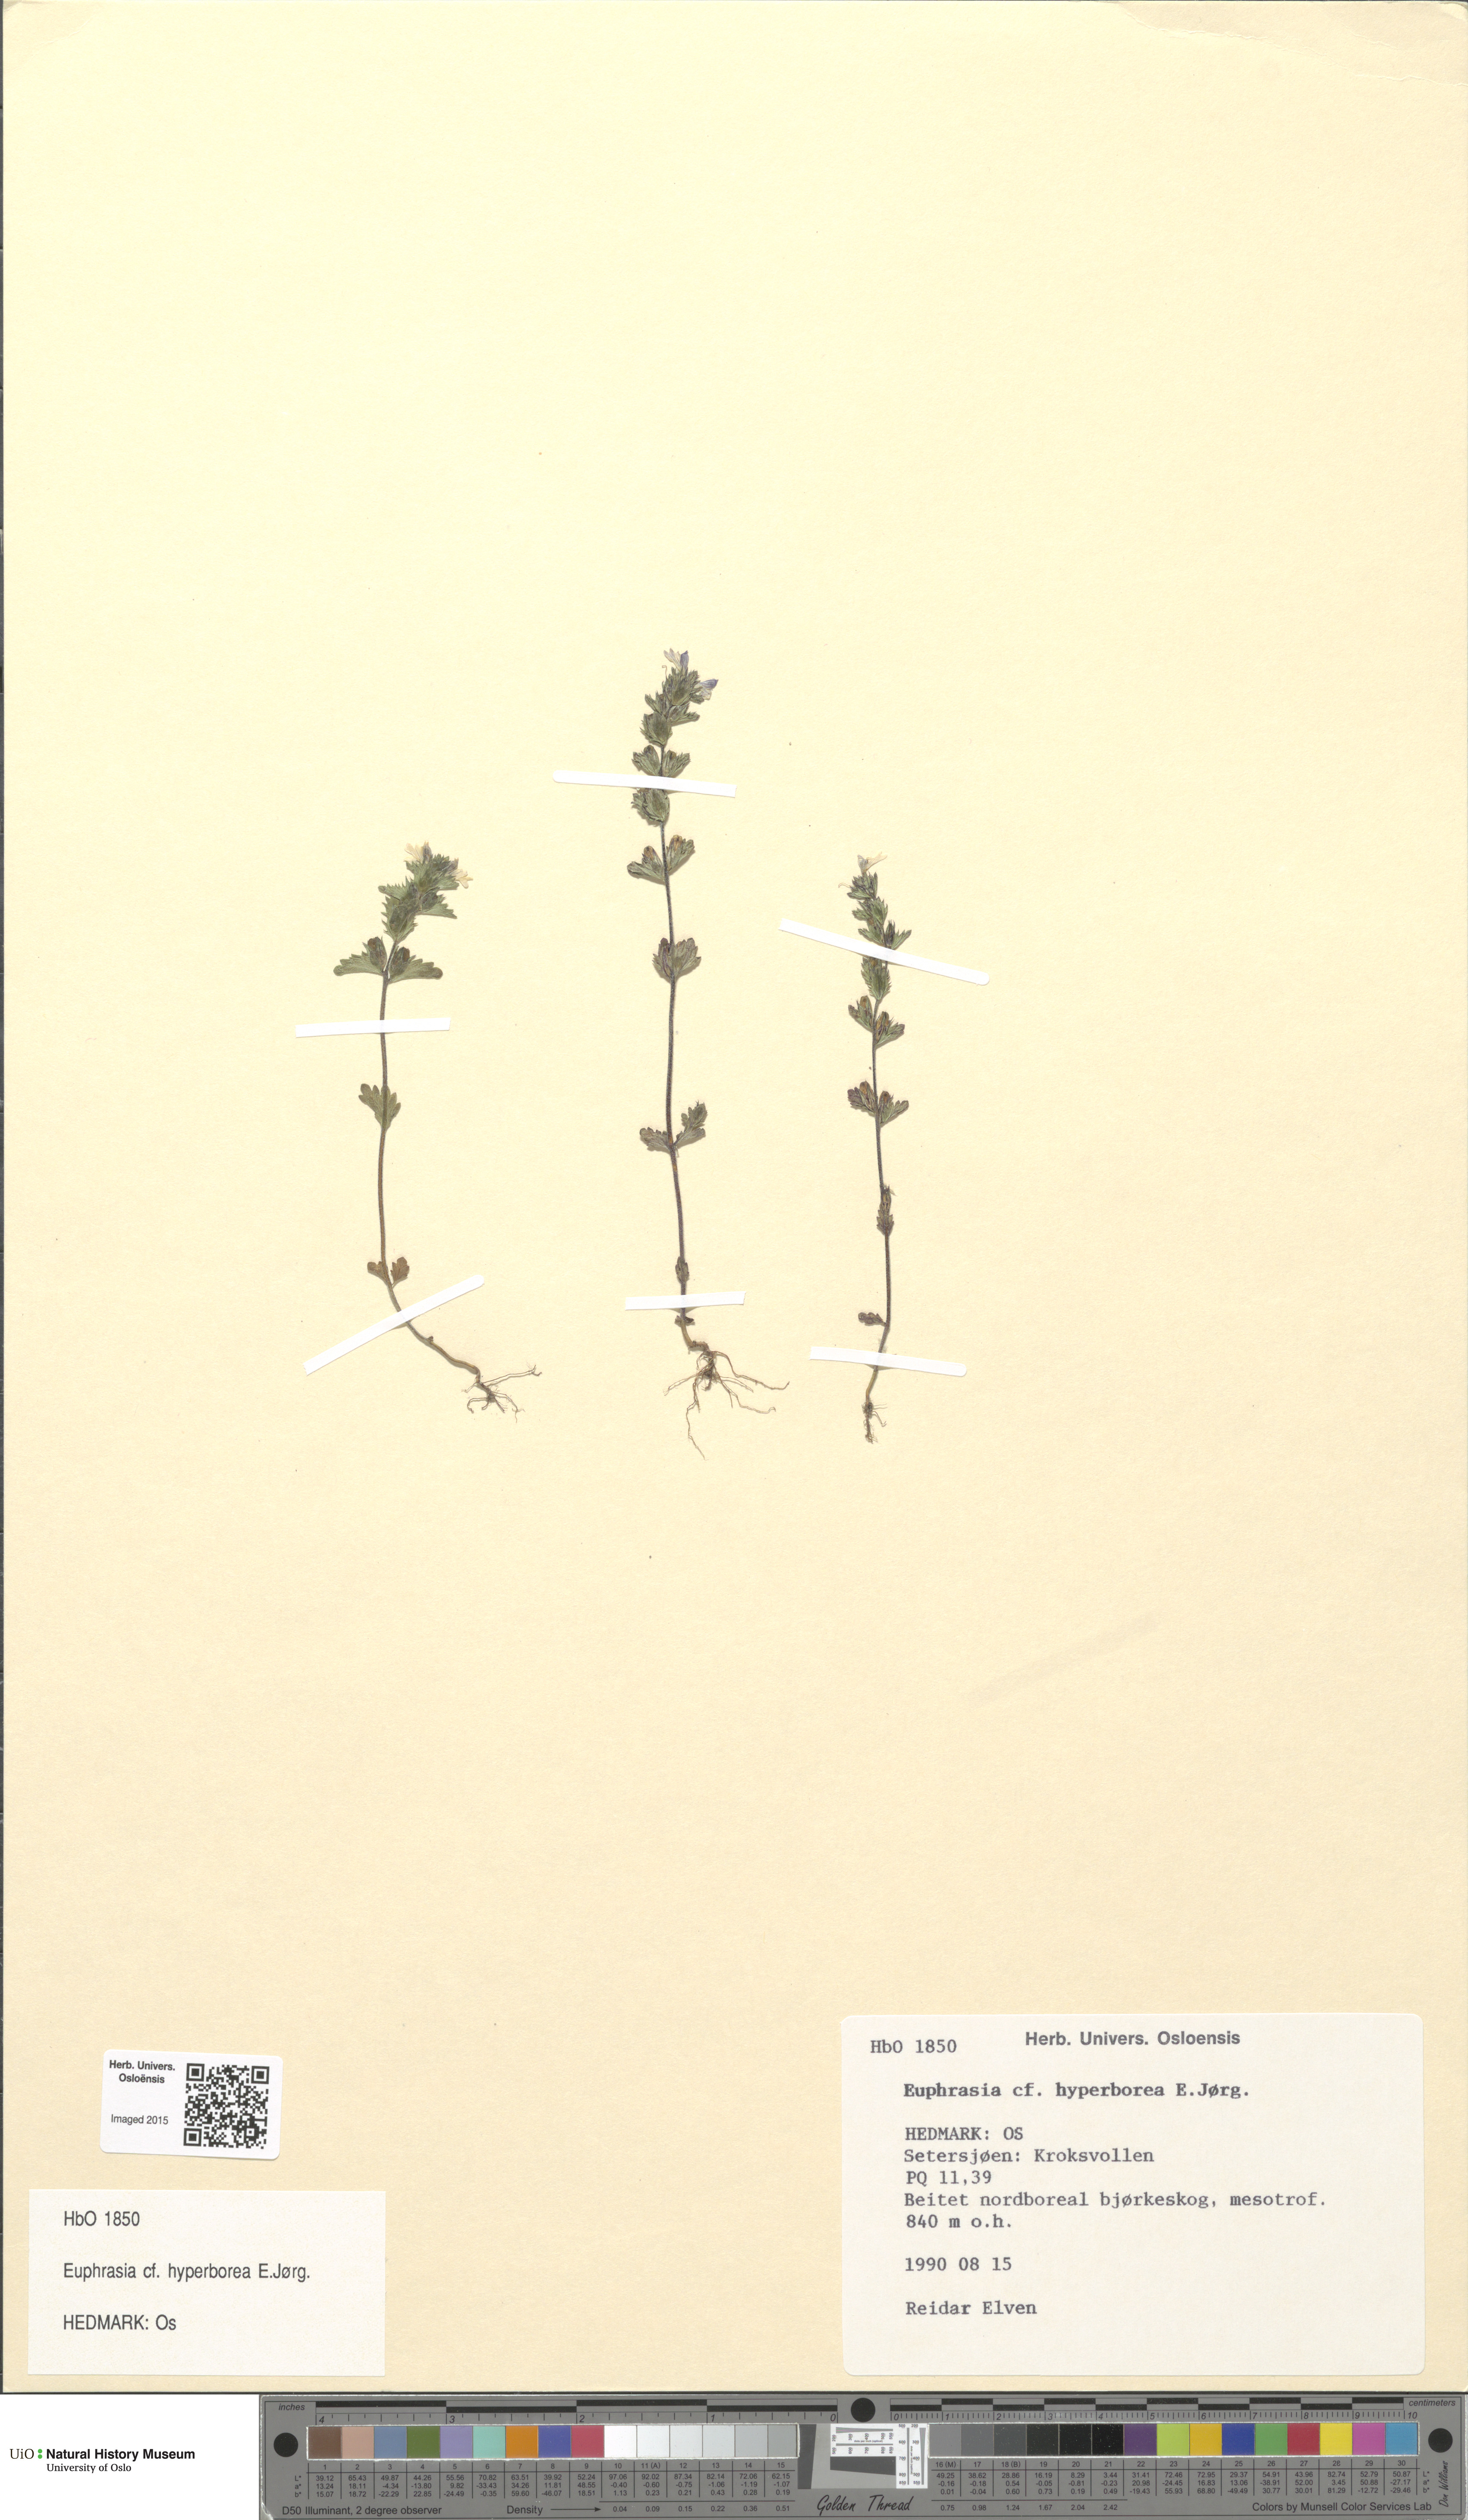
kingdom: Plantae
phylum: Tracheophyta
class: Magnoliopsida
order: Lamiales
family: Orobanchaceae
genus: Euphrasia
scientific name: Euphrasia hyperborea
